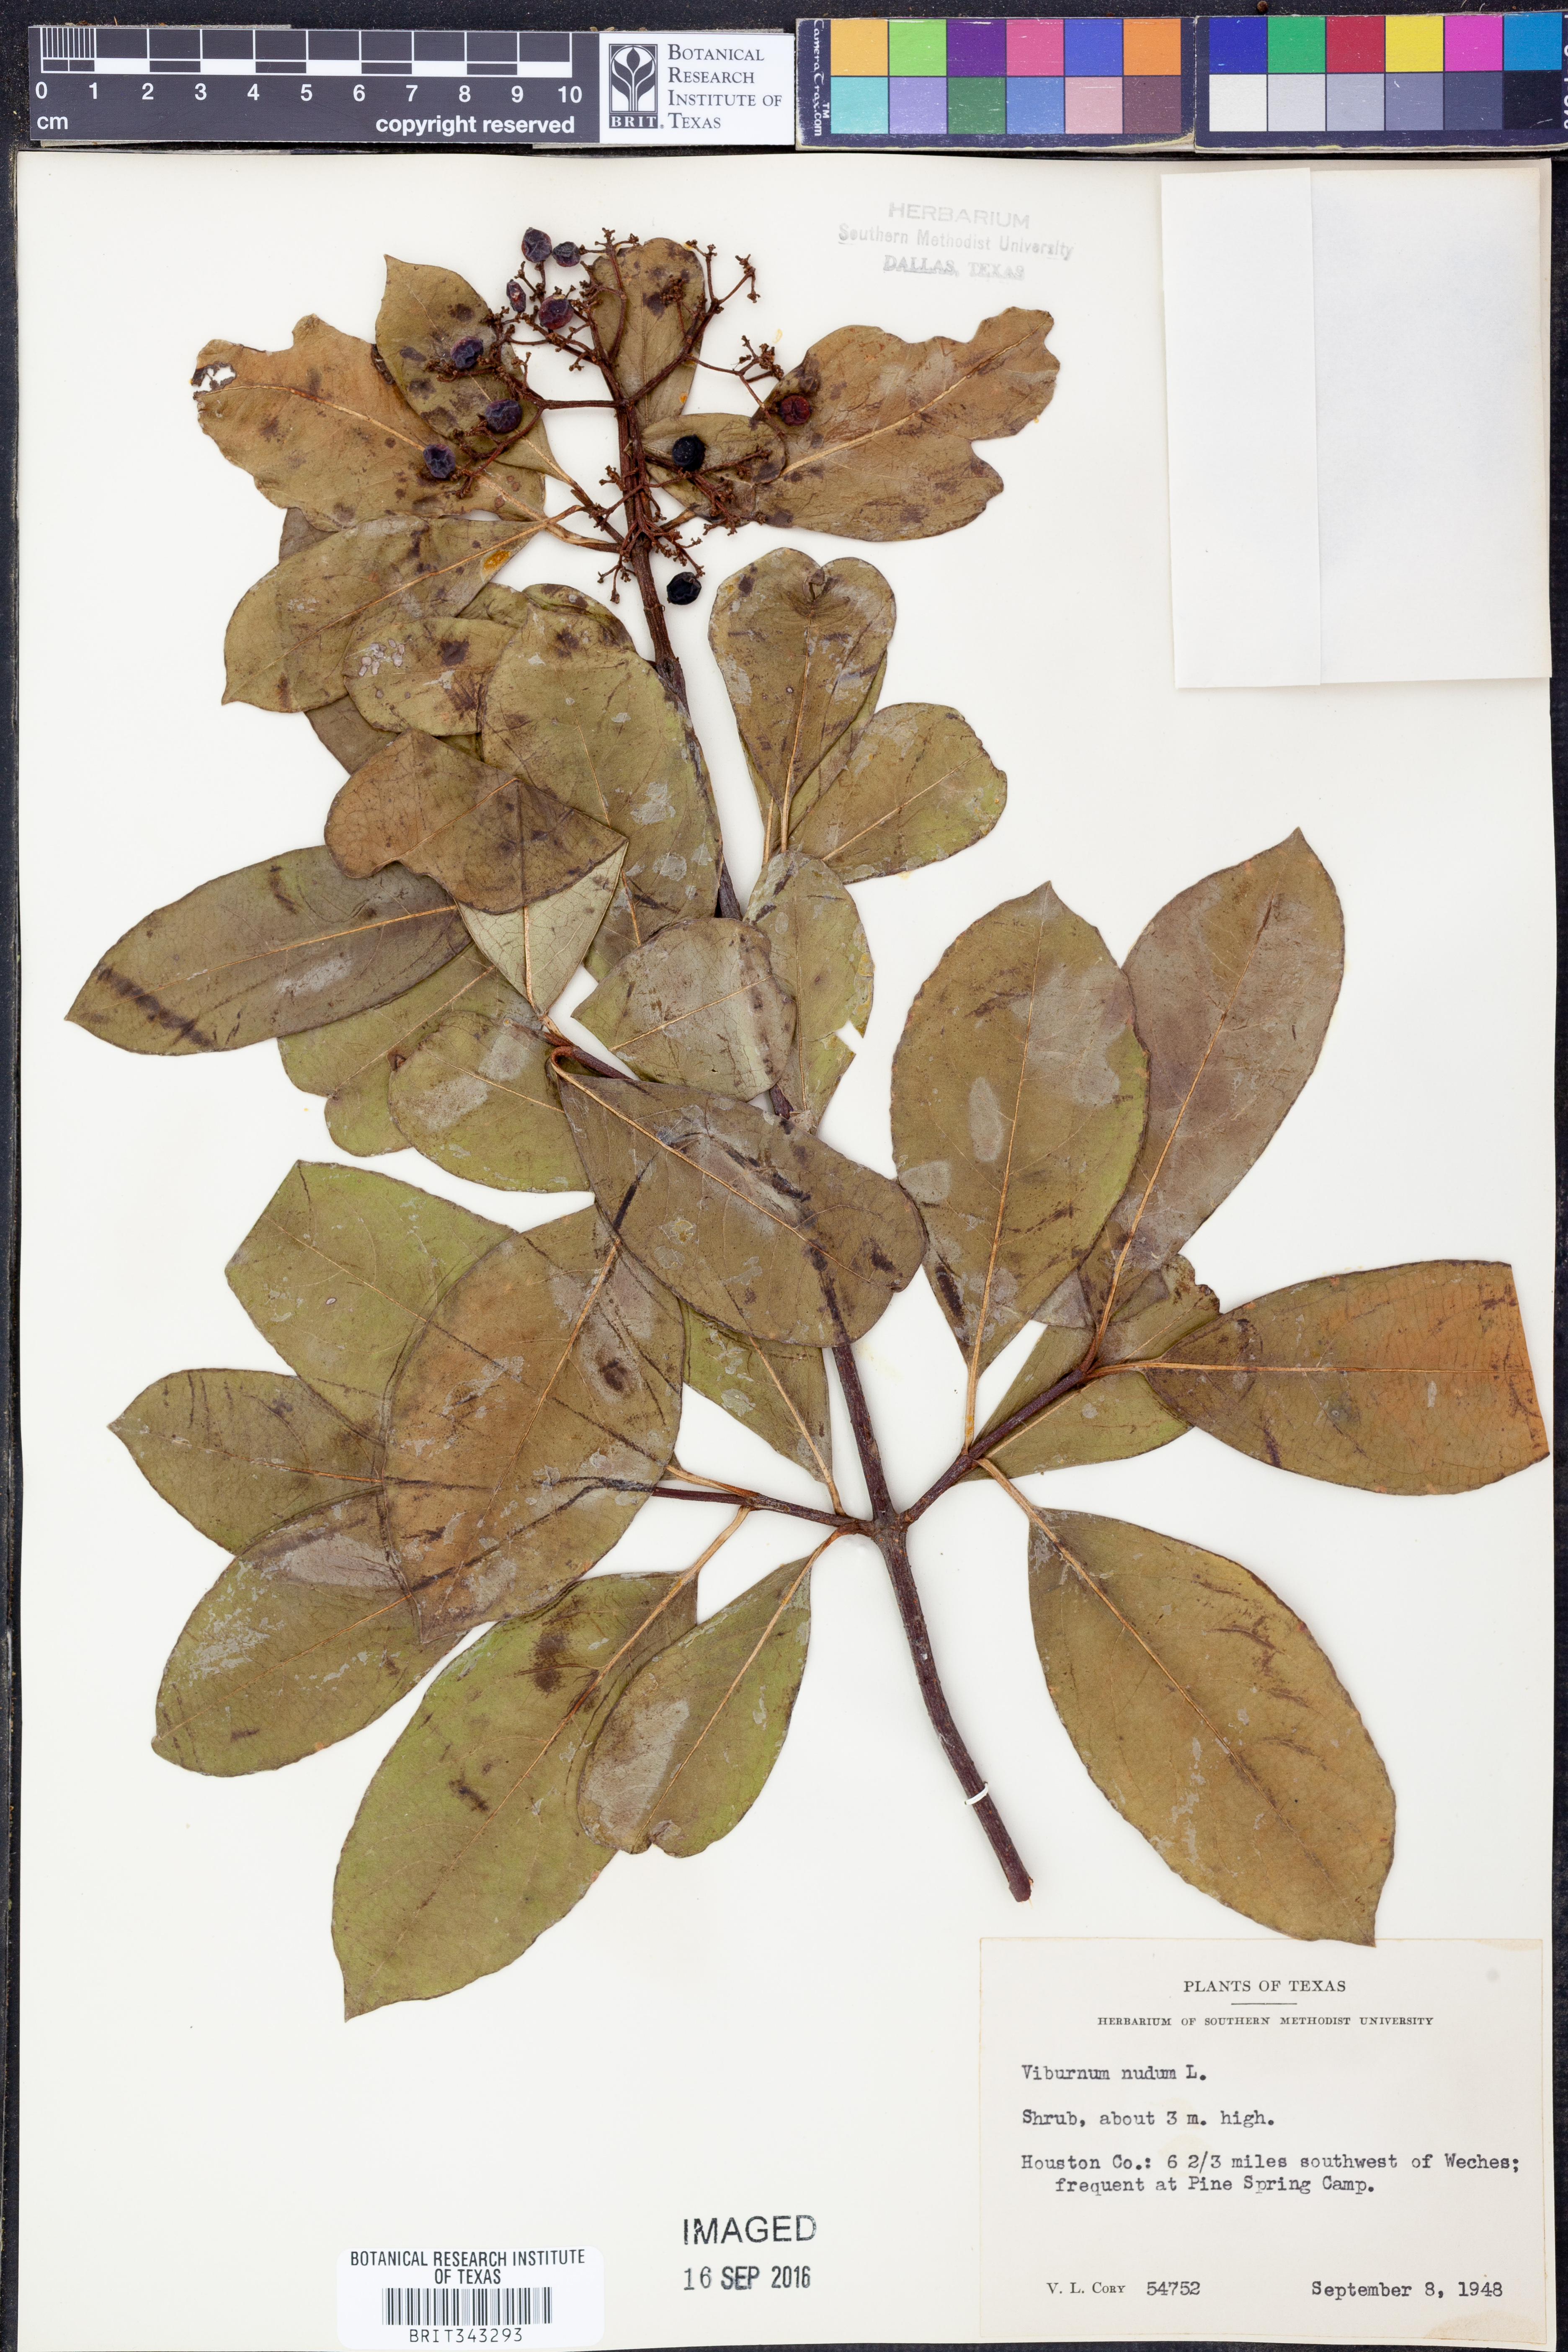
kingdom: Plantae
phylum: Tracheophyta
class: Magnoliopsida
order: Dipsacales
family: Viburnaceae
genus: Viburnum
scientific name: Viburnum nudum
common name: Possum haw
